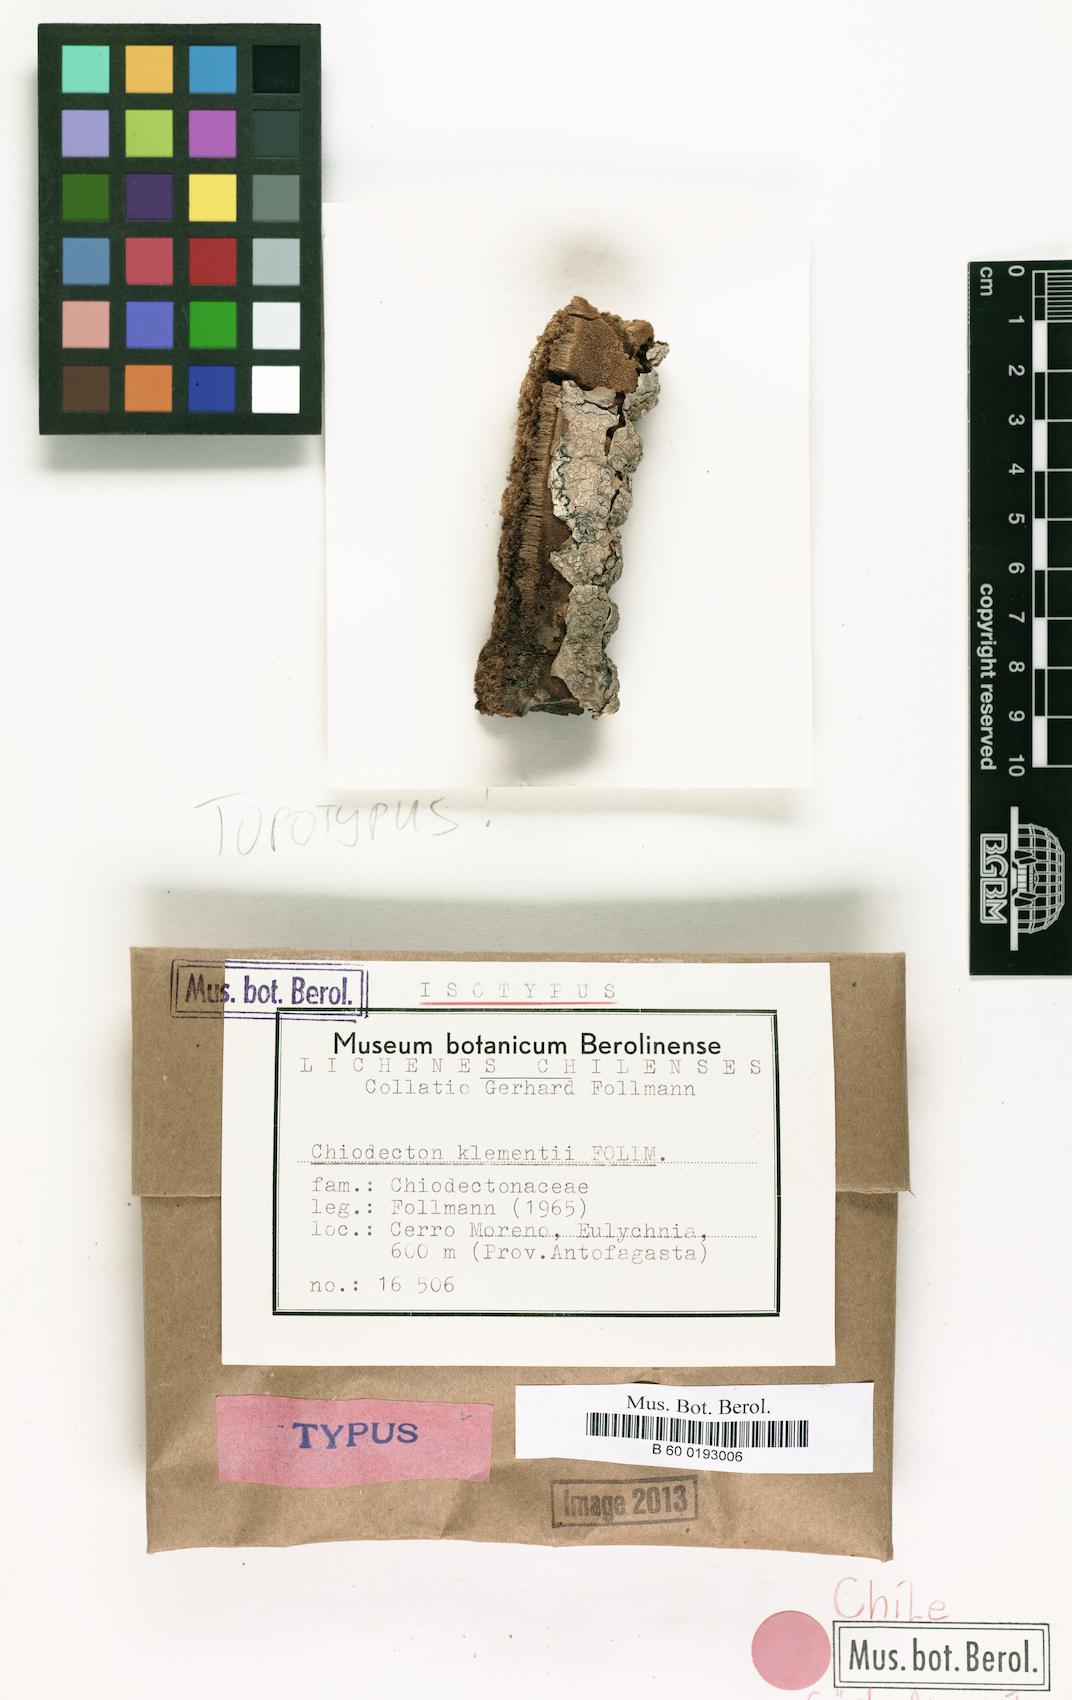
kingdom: Fungi
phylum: Ascomycota
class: Arthoniomycetes
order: Arthoniales
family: Roccellographaceae
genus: Fulvophyton
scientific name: Fulvophyton klementii
